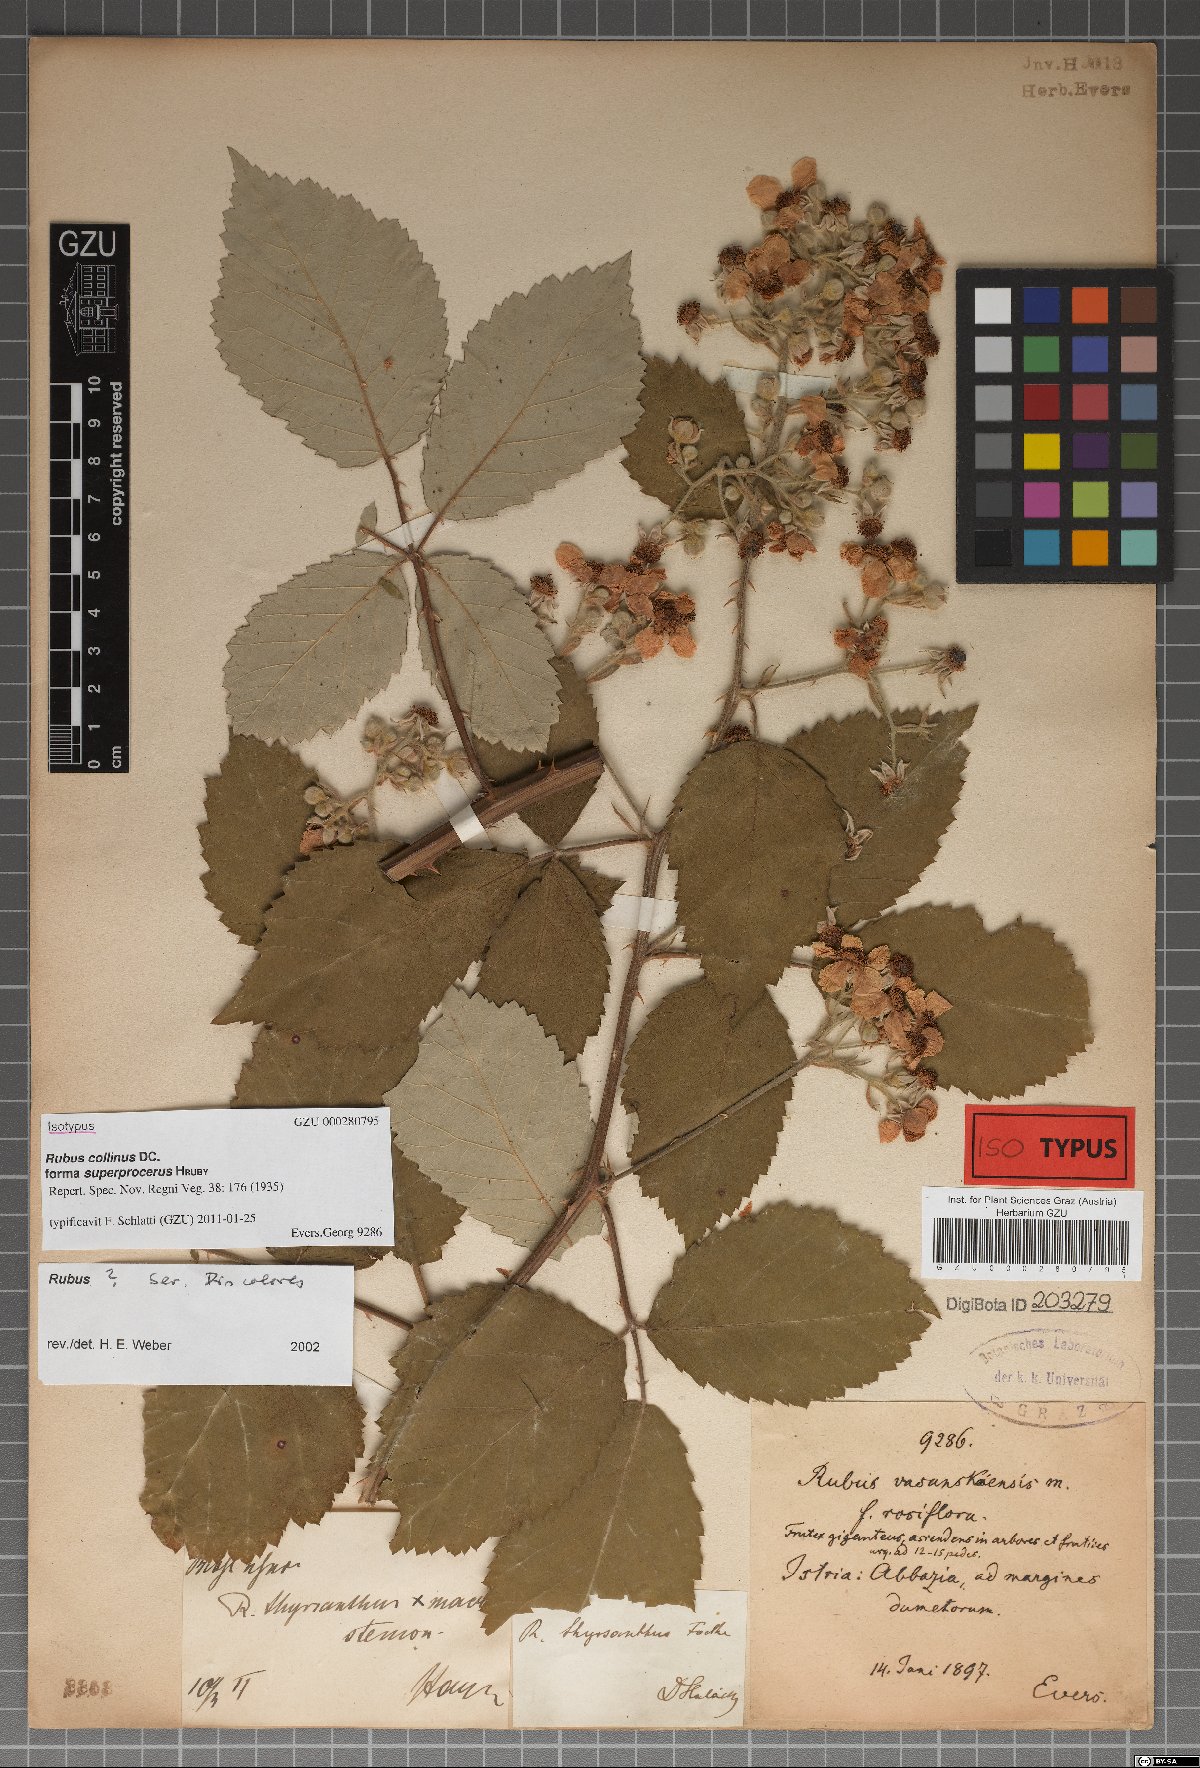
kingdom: Plantae
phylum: Tracheophyta
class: Magnoliopsida
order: Rosales
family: Rosaceae
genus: Rubus
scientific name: Rubus collinus
